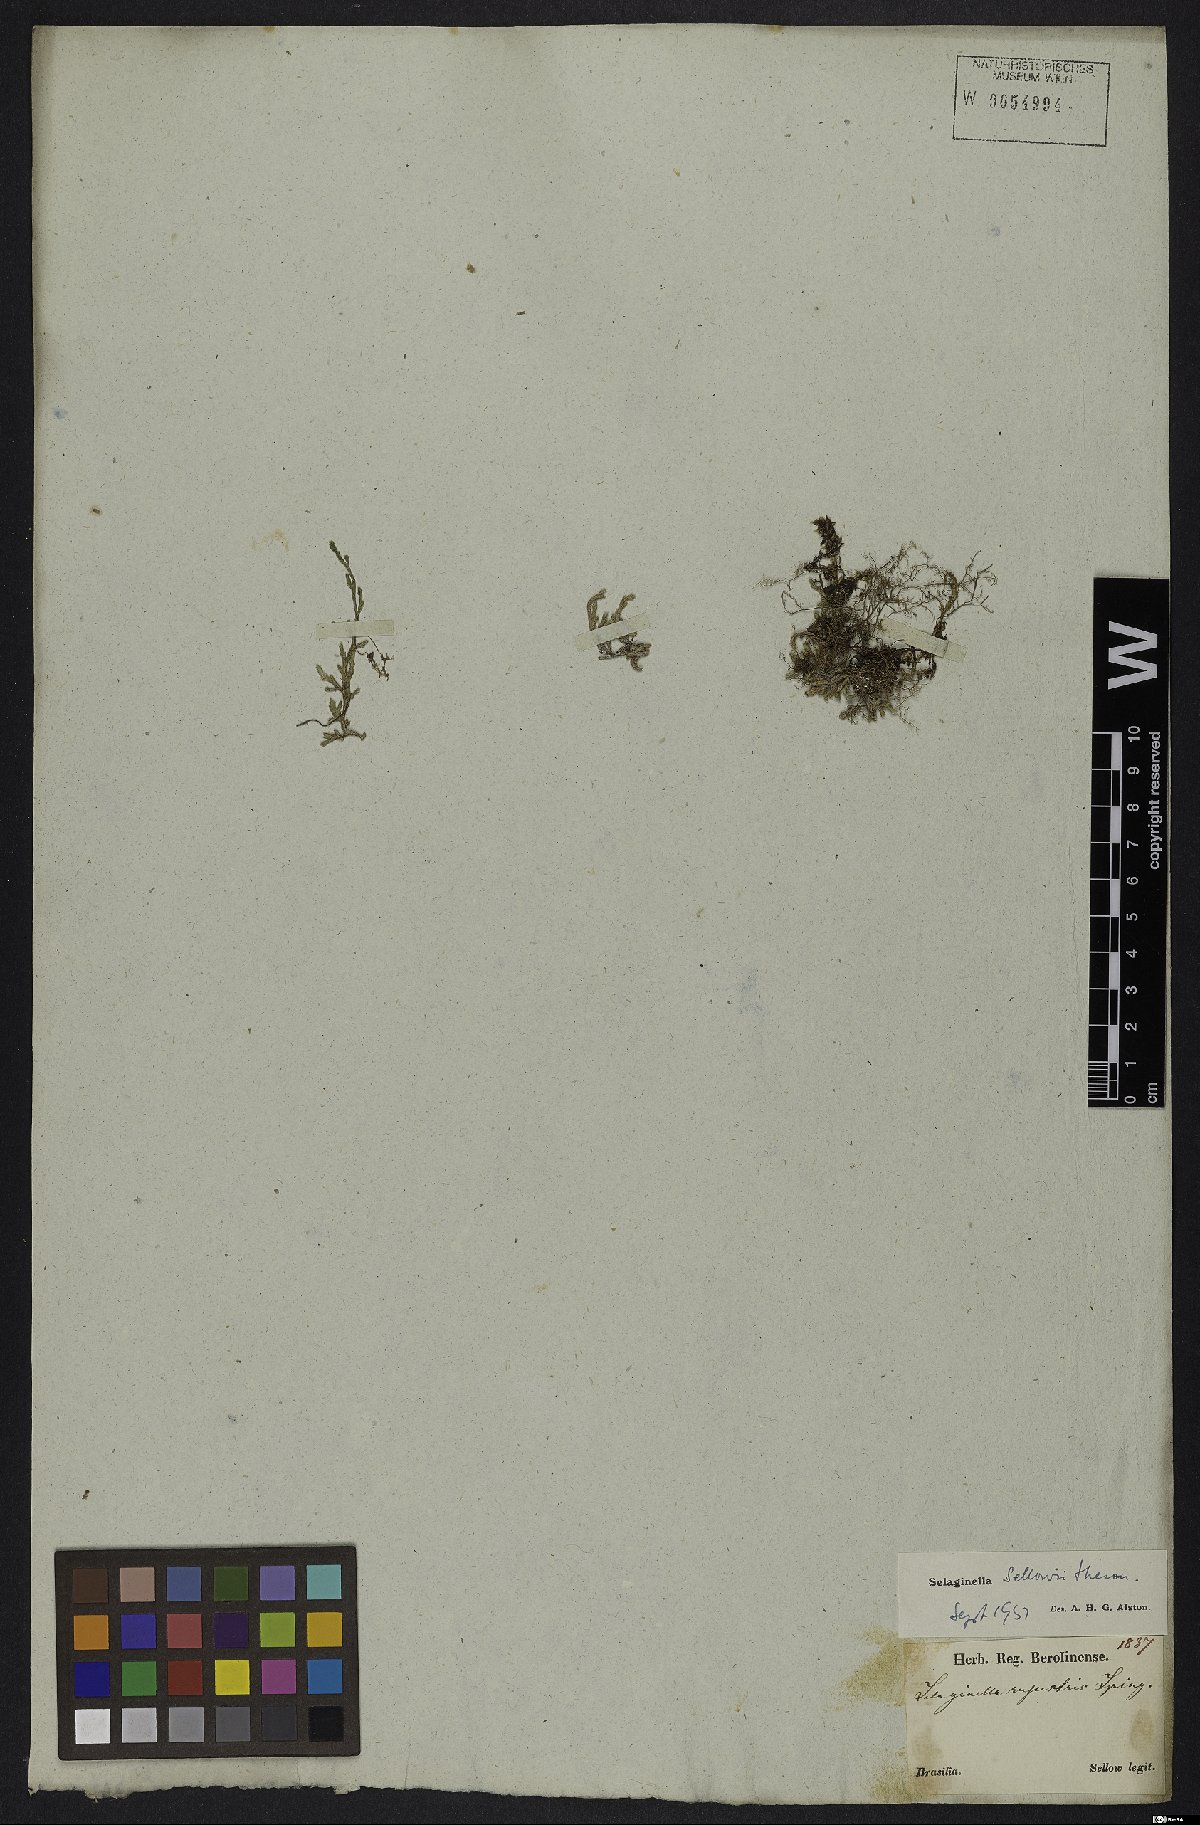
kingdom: Plantae
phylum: Tracheophyta
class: Lycopodiopsida
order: Selaginellales
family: Selaginellaceae
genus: Selaginella
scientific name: Selaginella sellowii
